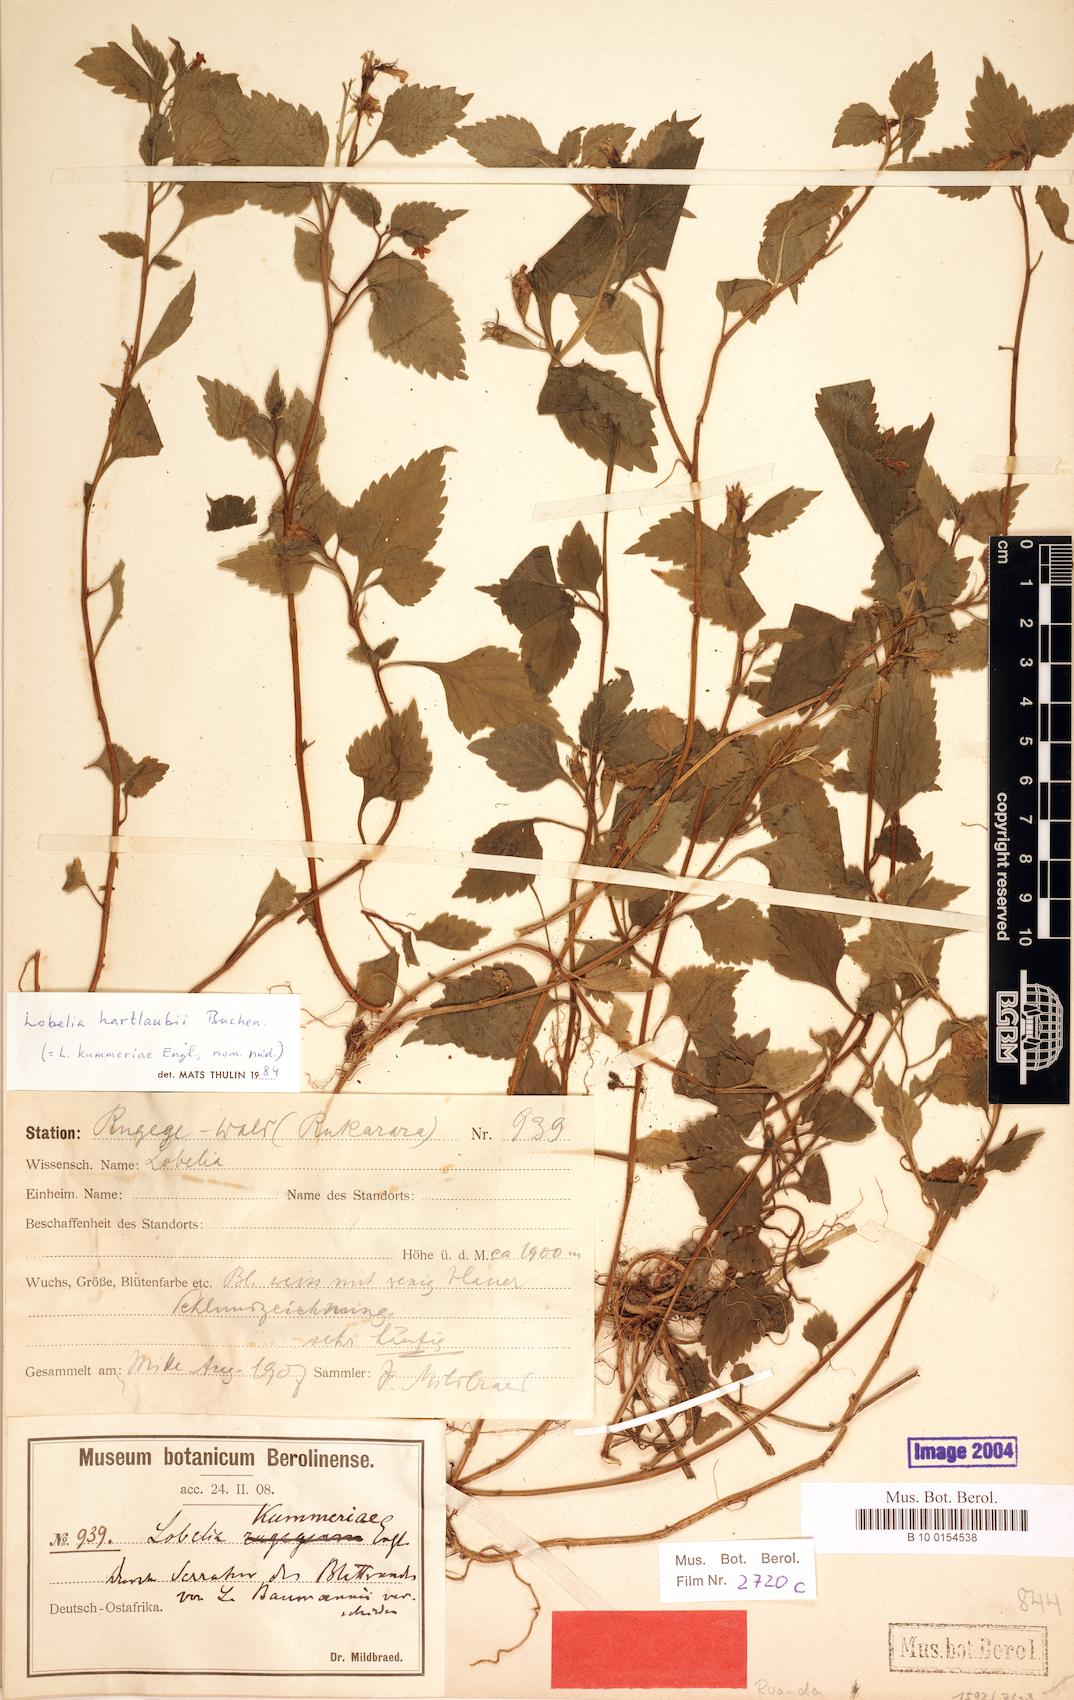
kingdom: Plantae
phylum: Tracheophyta
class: Magnoliopsida
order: Asterales
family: Campanulaceae
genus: Lobelia
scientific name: Lobelia hartlaubii
